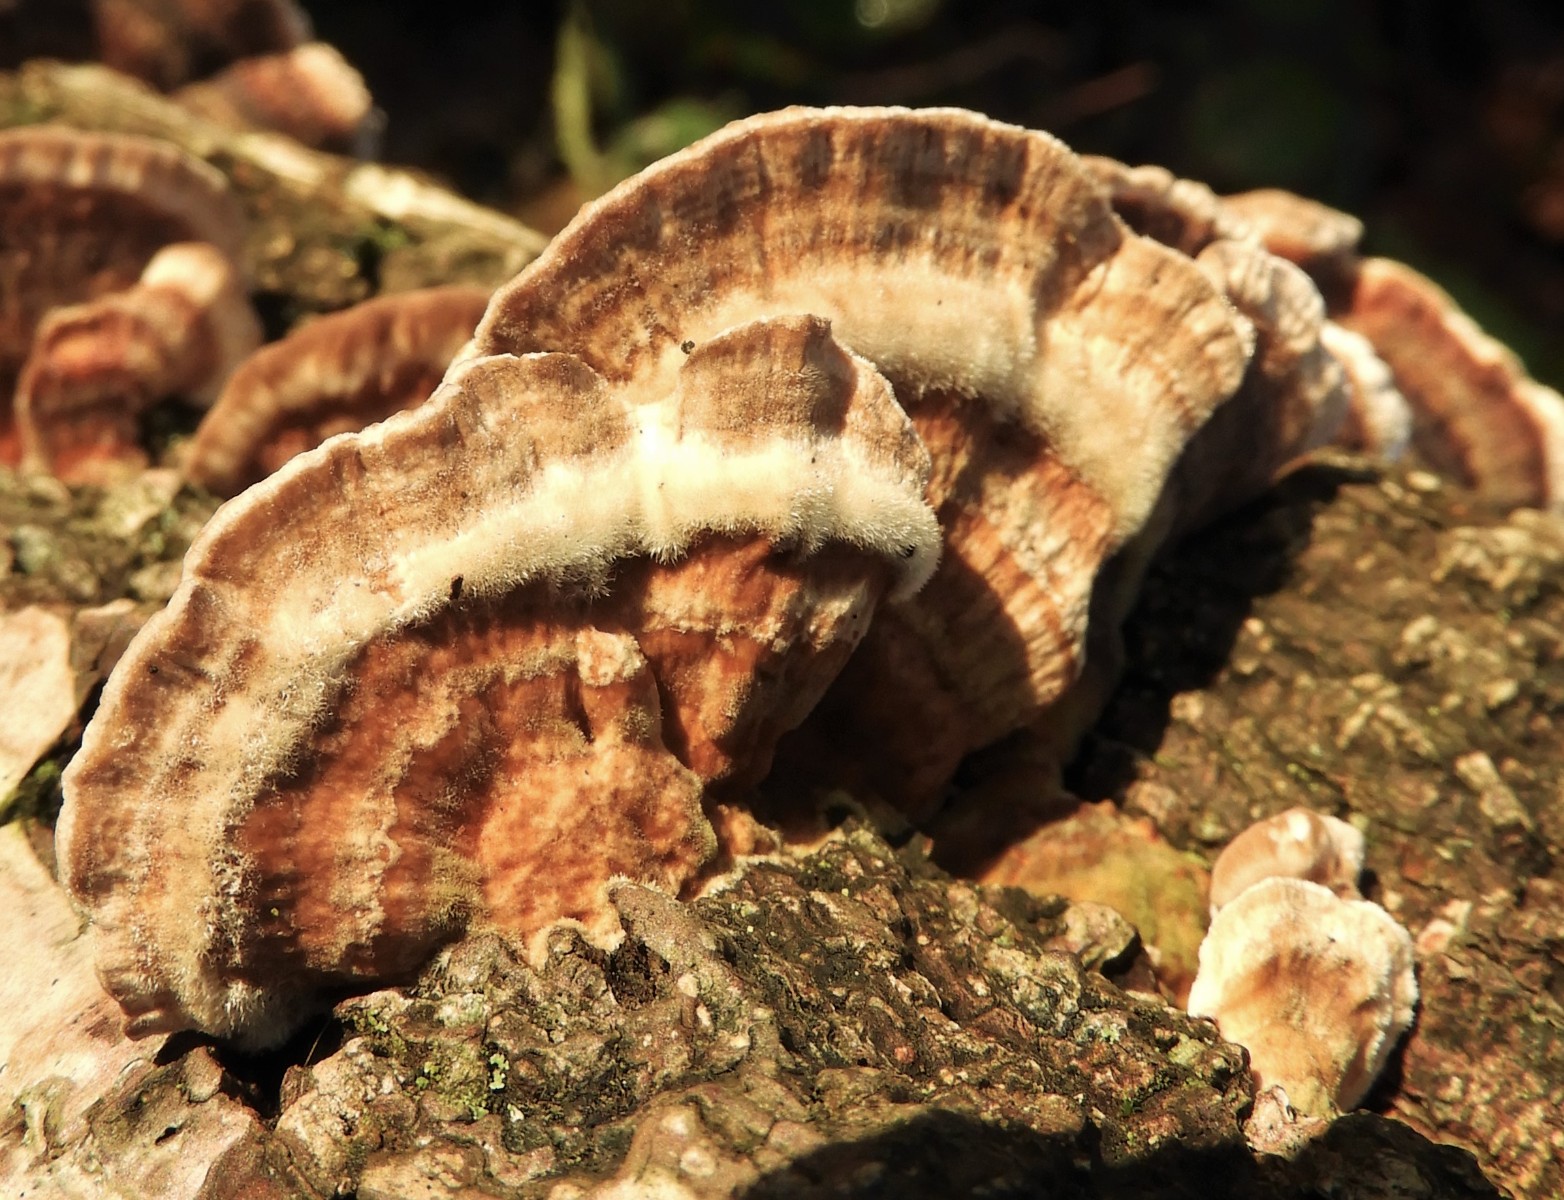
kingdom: Fungi
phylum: Basidiomycota
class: Agaricomycetes
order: Polyporales
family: Polyporaceae
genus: Trametes
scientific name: Trametes versicolor
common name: broget læderporesvamp
